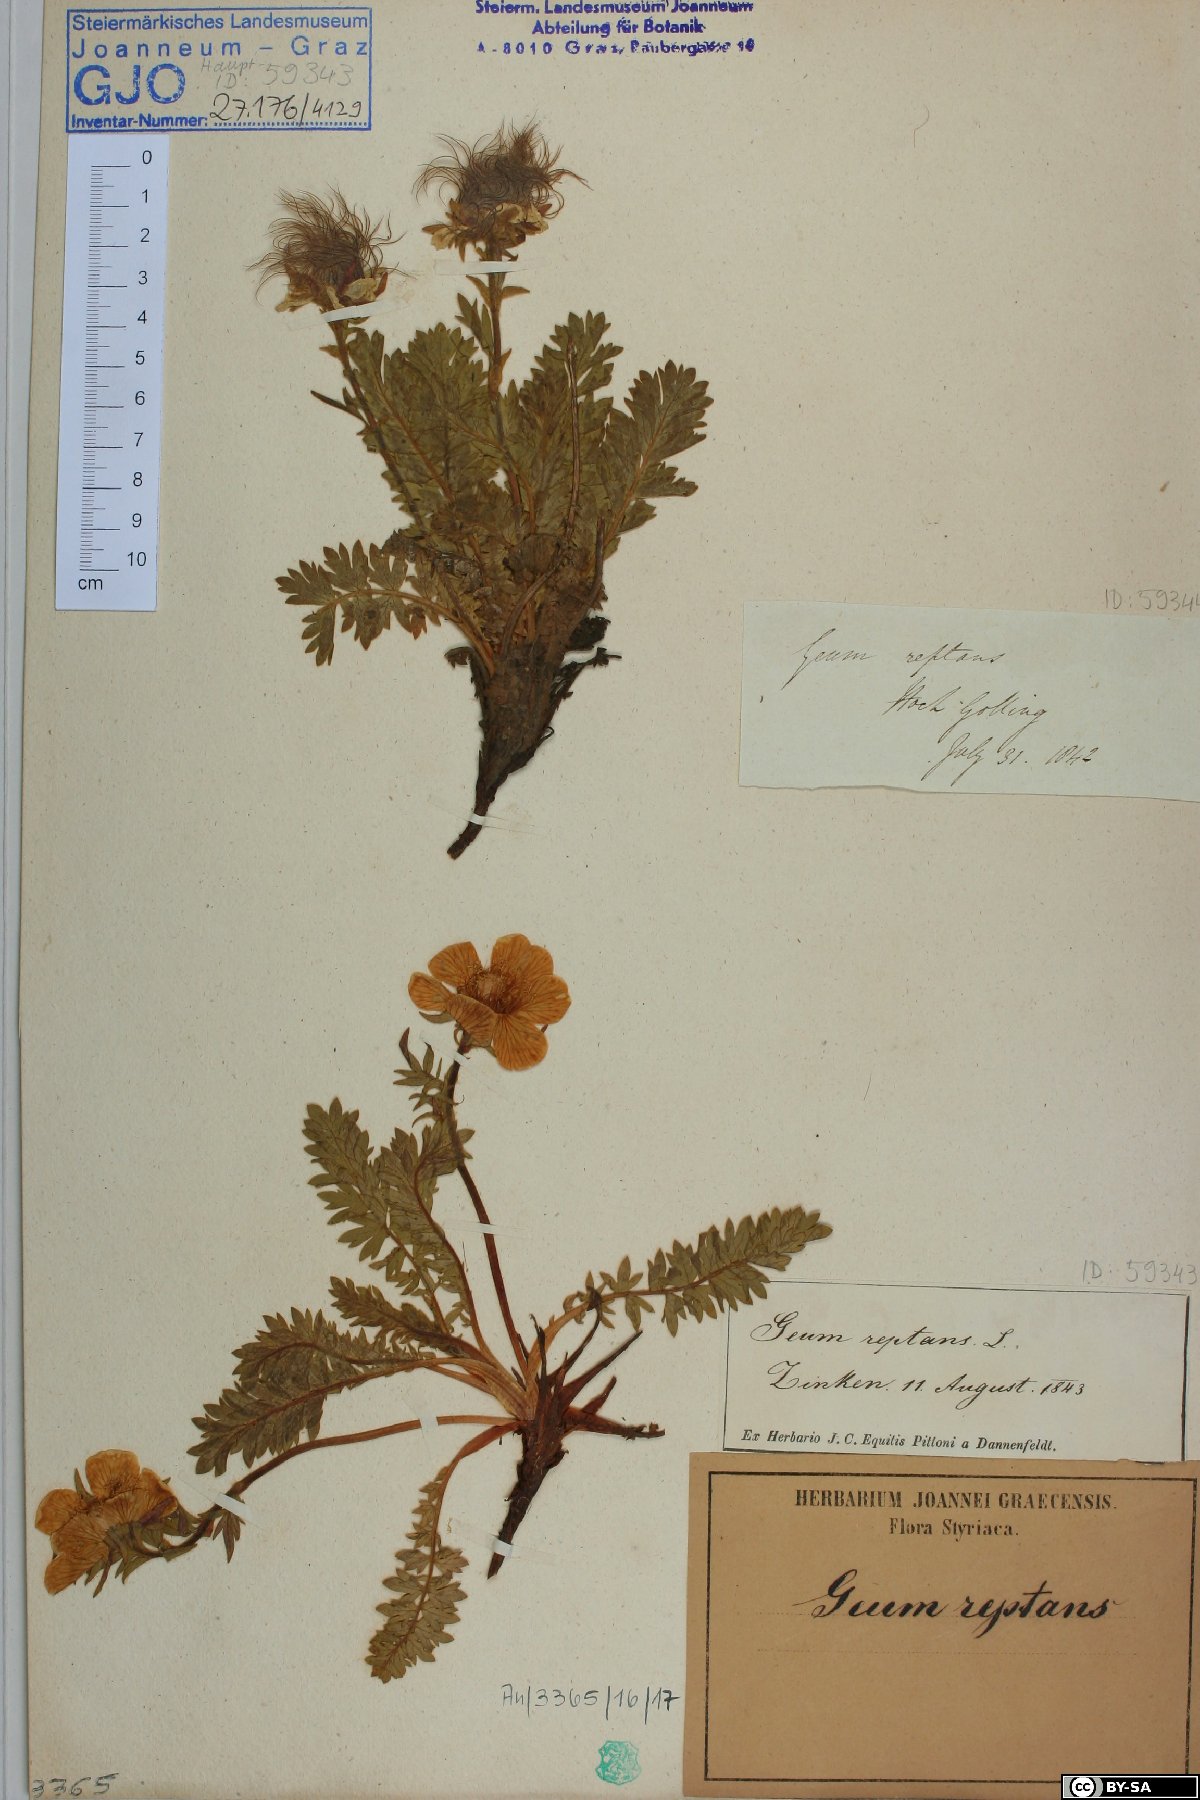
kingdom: Plantae
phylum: Tracheophyta
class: Magnoliopsida
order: Rosales
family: Rosaceae
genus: Geum
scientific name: Geum reptans
